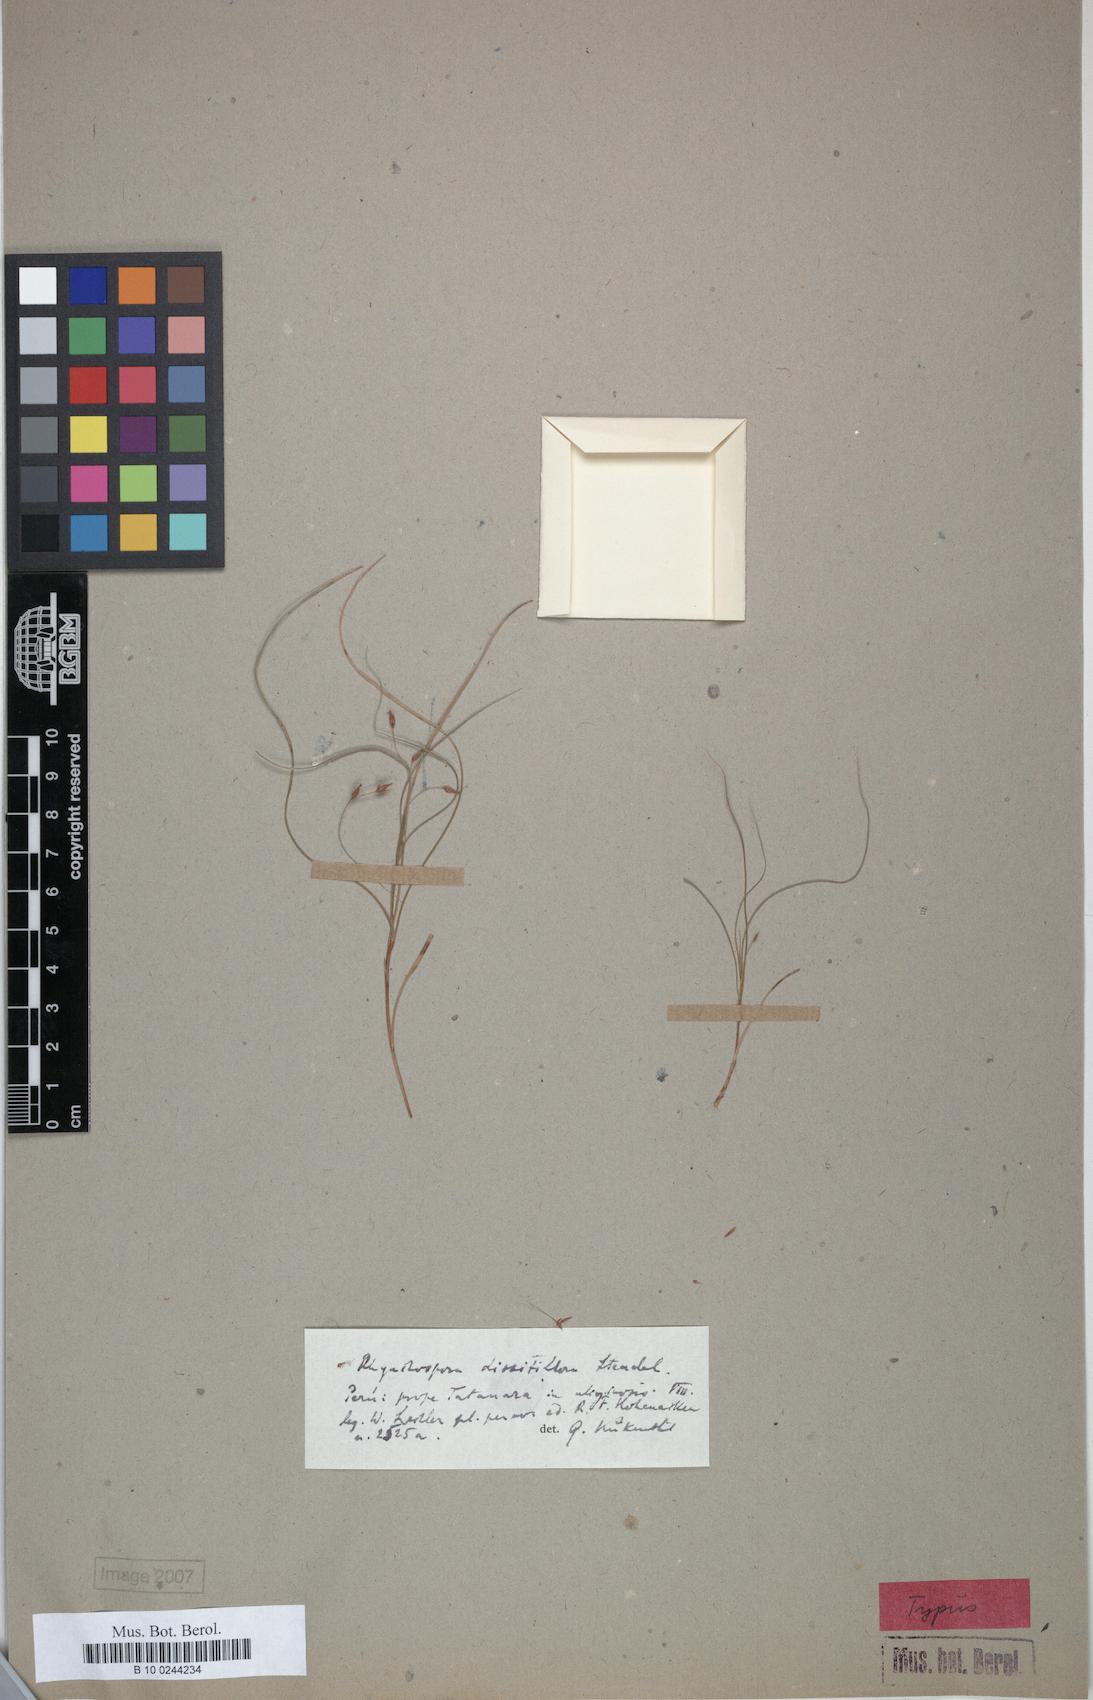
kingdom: Plantae
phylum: Tracheophyta
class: Liliopsida
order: Poales
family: Cyperaceae
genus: Rhynchospora
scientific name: Rhynchospora dissitiflora
